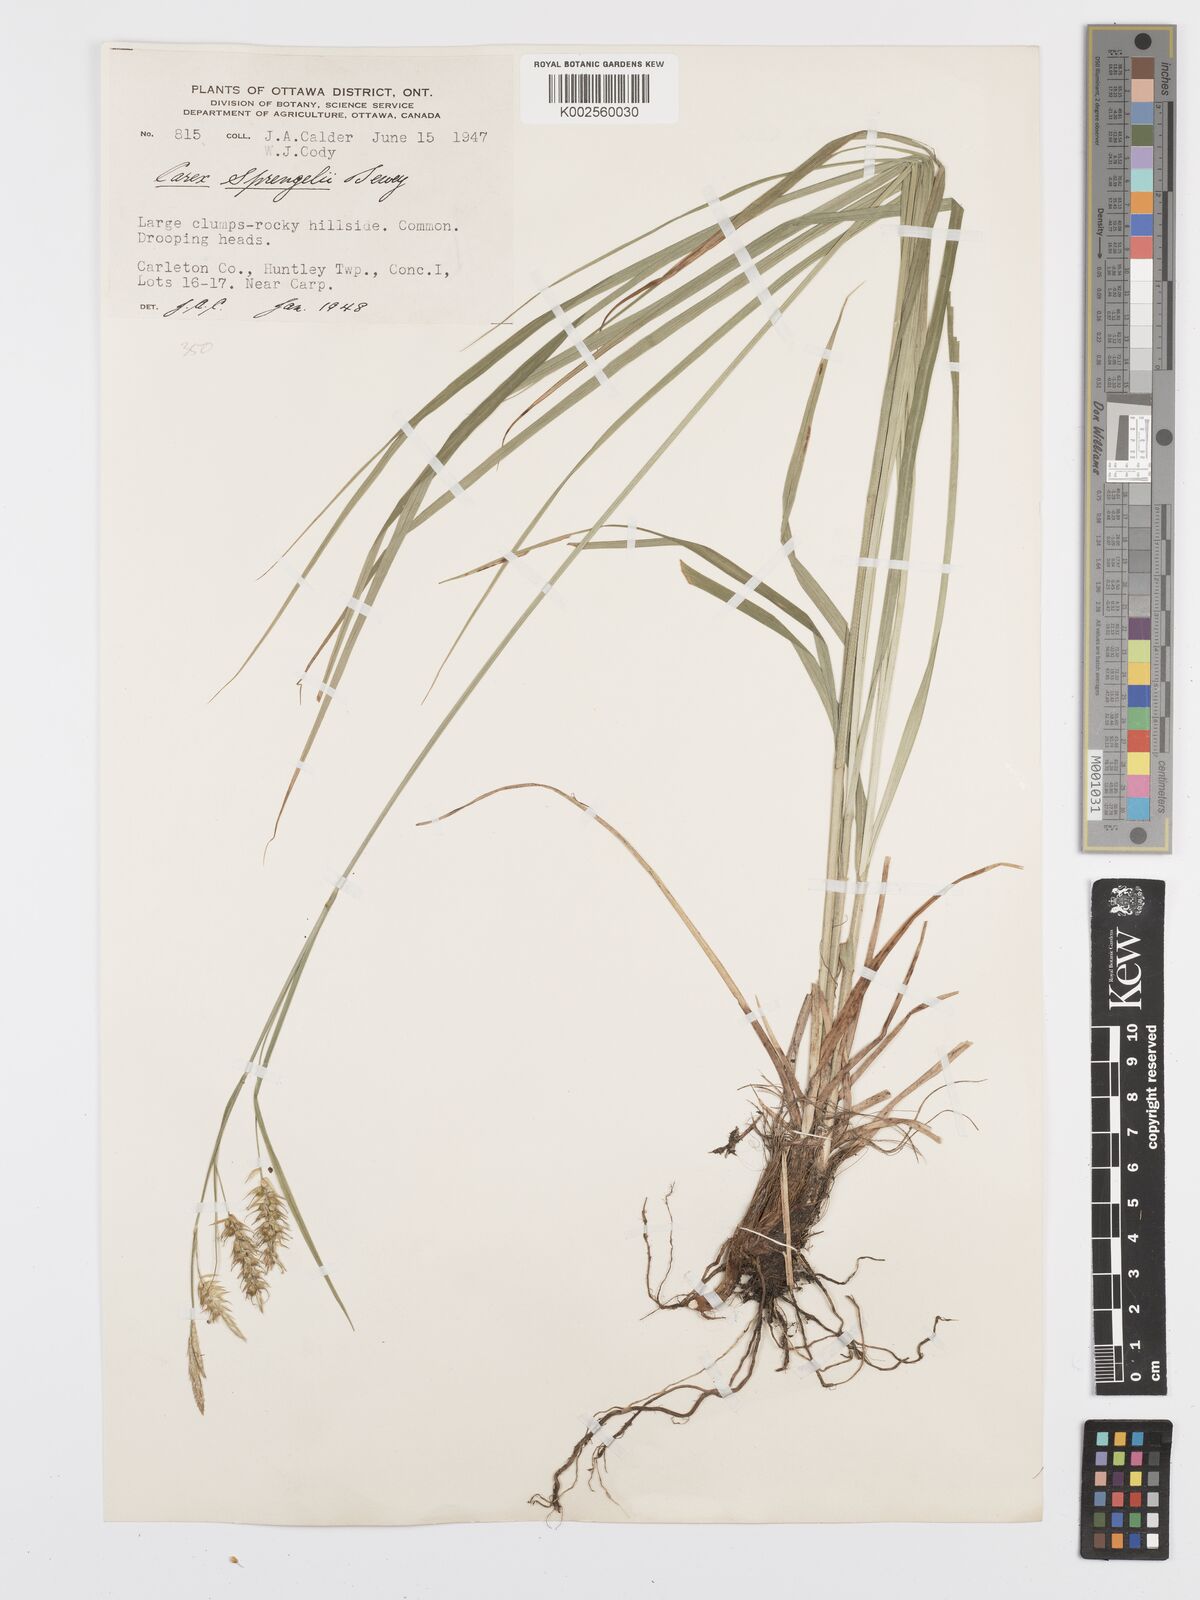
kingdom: Plantae
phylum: Tracheophyta
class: Liliopsida
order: Poales
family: Cyperaceae
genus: Carex
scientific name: Carex sprengelii
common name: Long-beaked sedge
